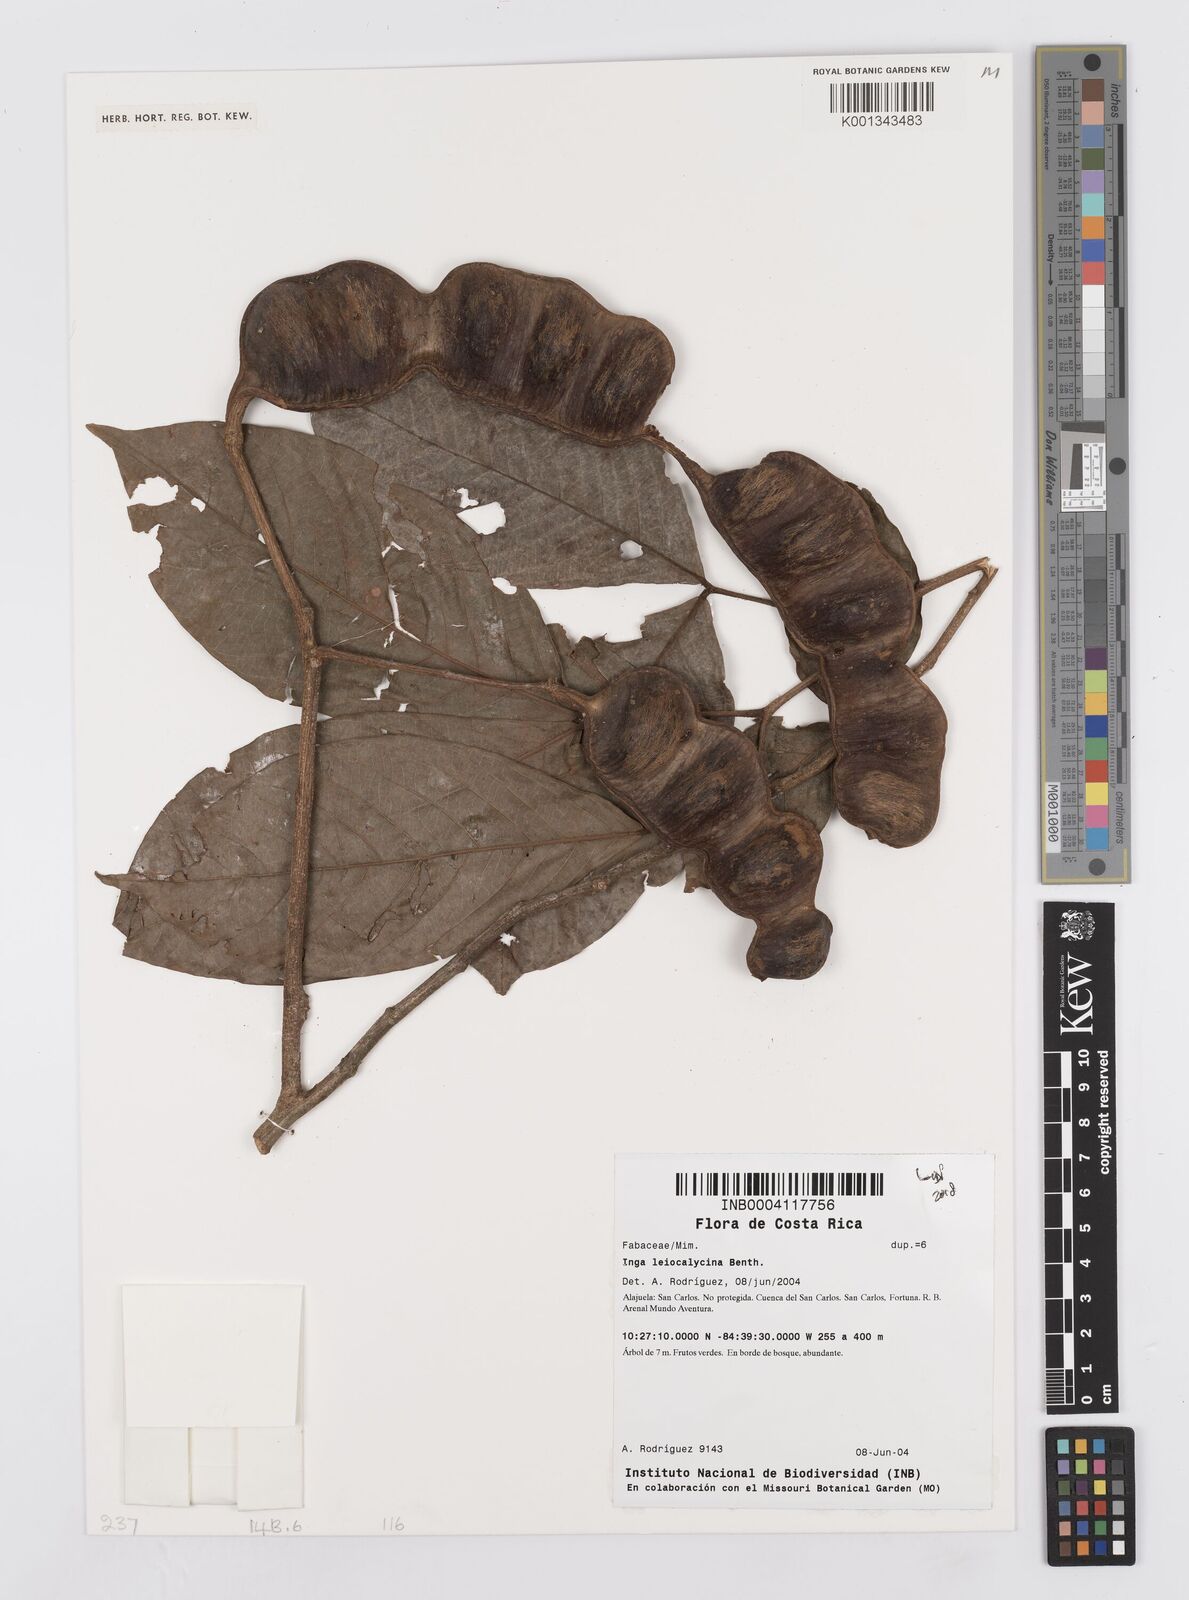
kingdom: Plantae
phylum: Tracheophyta
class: Magnoliopsida
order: Fabales
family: Fabaceae
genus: Inga
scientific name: Inga laevigata
